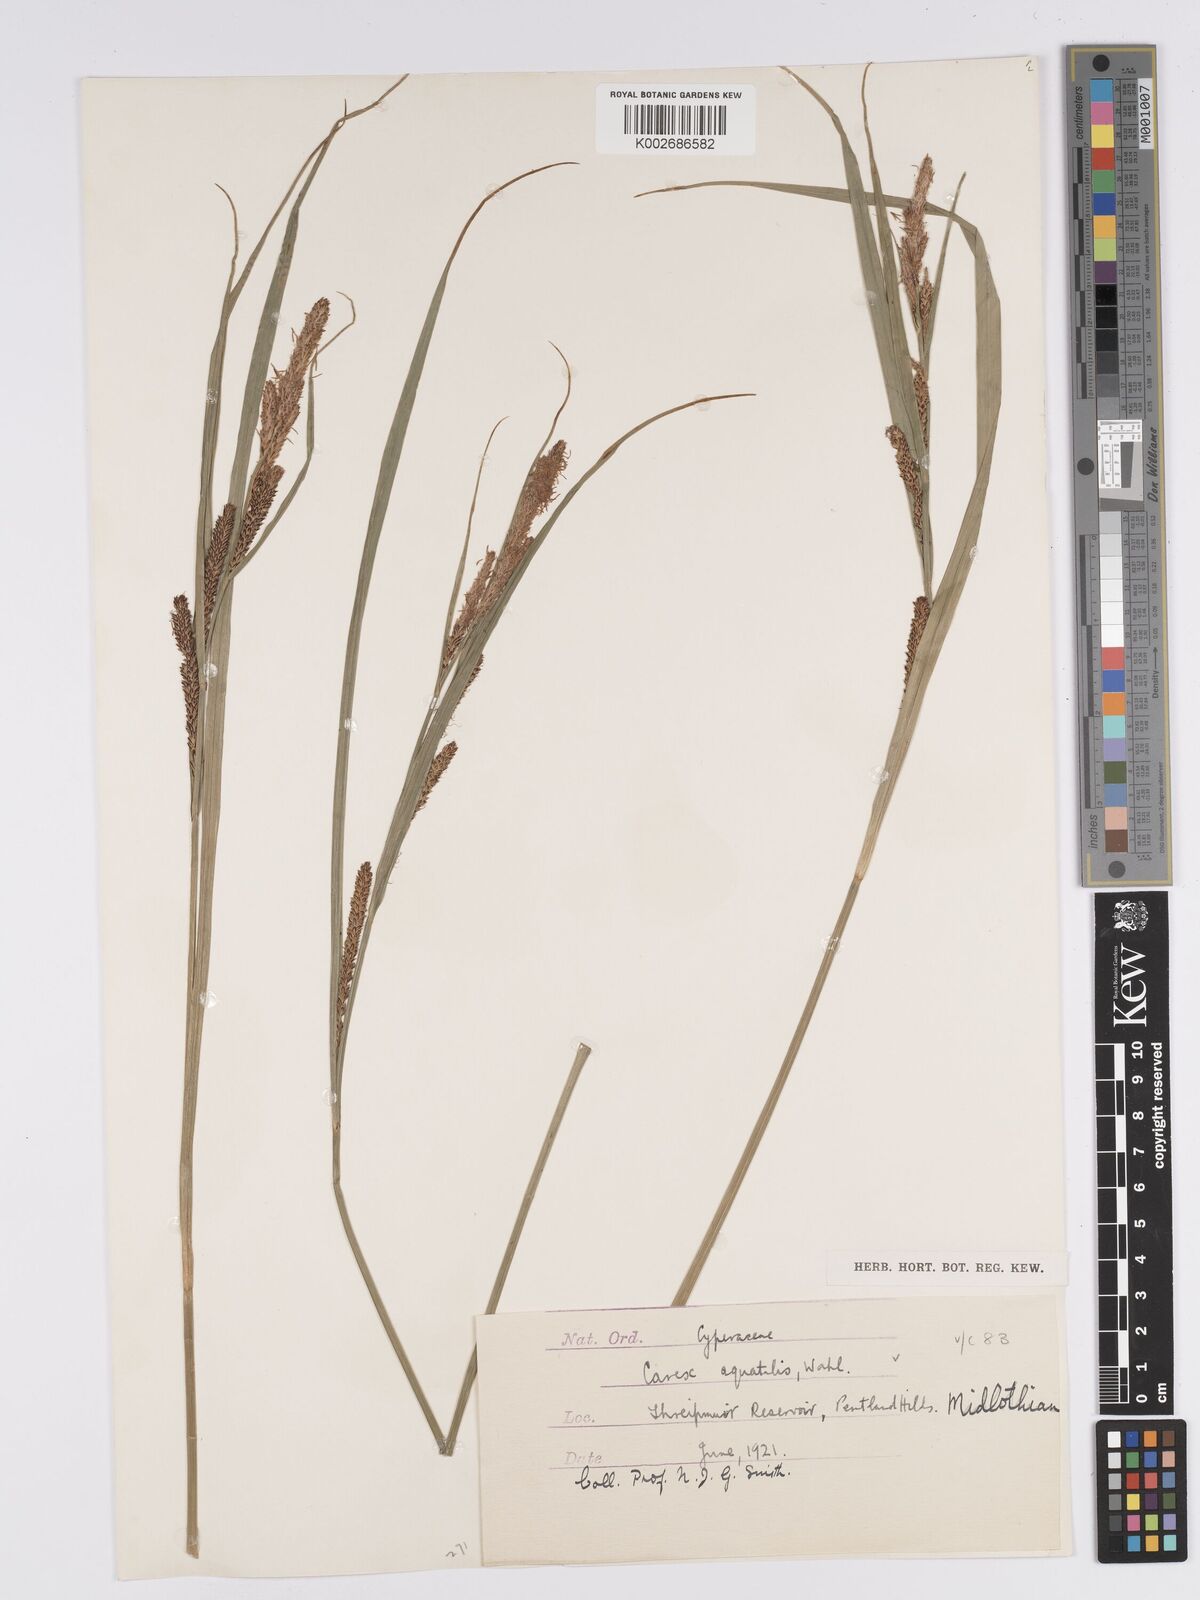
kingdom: Plantae
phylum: Tracheophyta
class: Liliopsida
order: Poales
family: Cyperaceae
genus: Carex
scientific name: Carex aquatilis
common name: Water sedge
